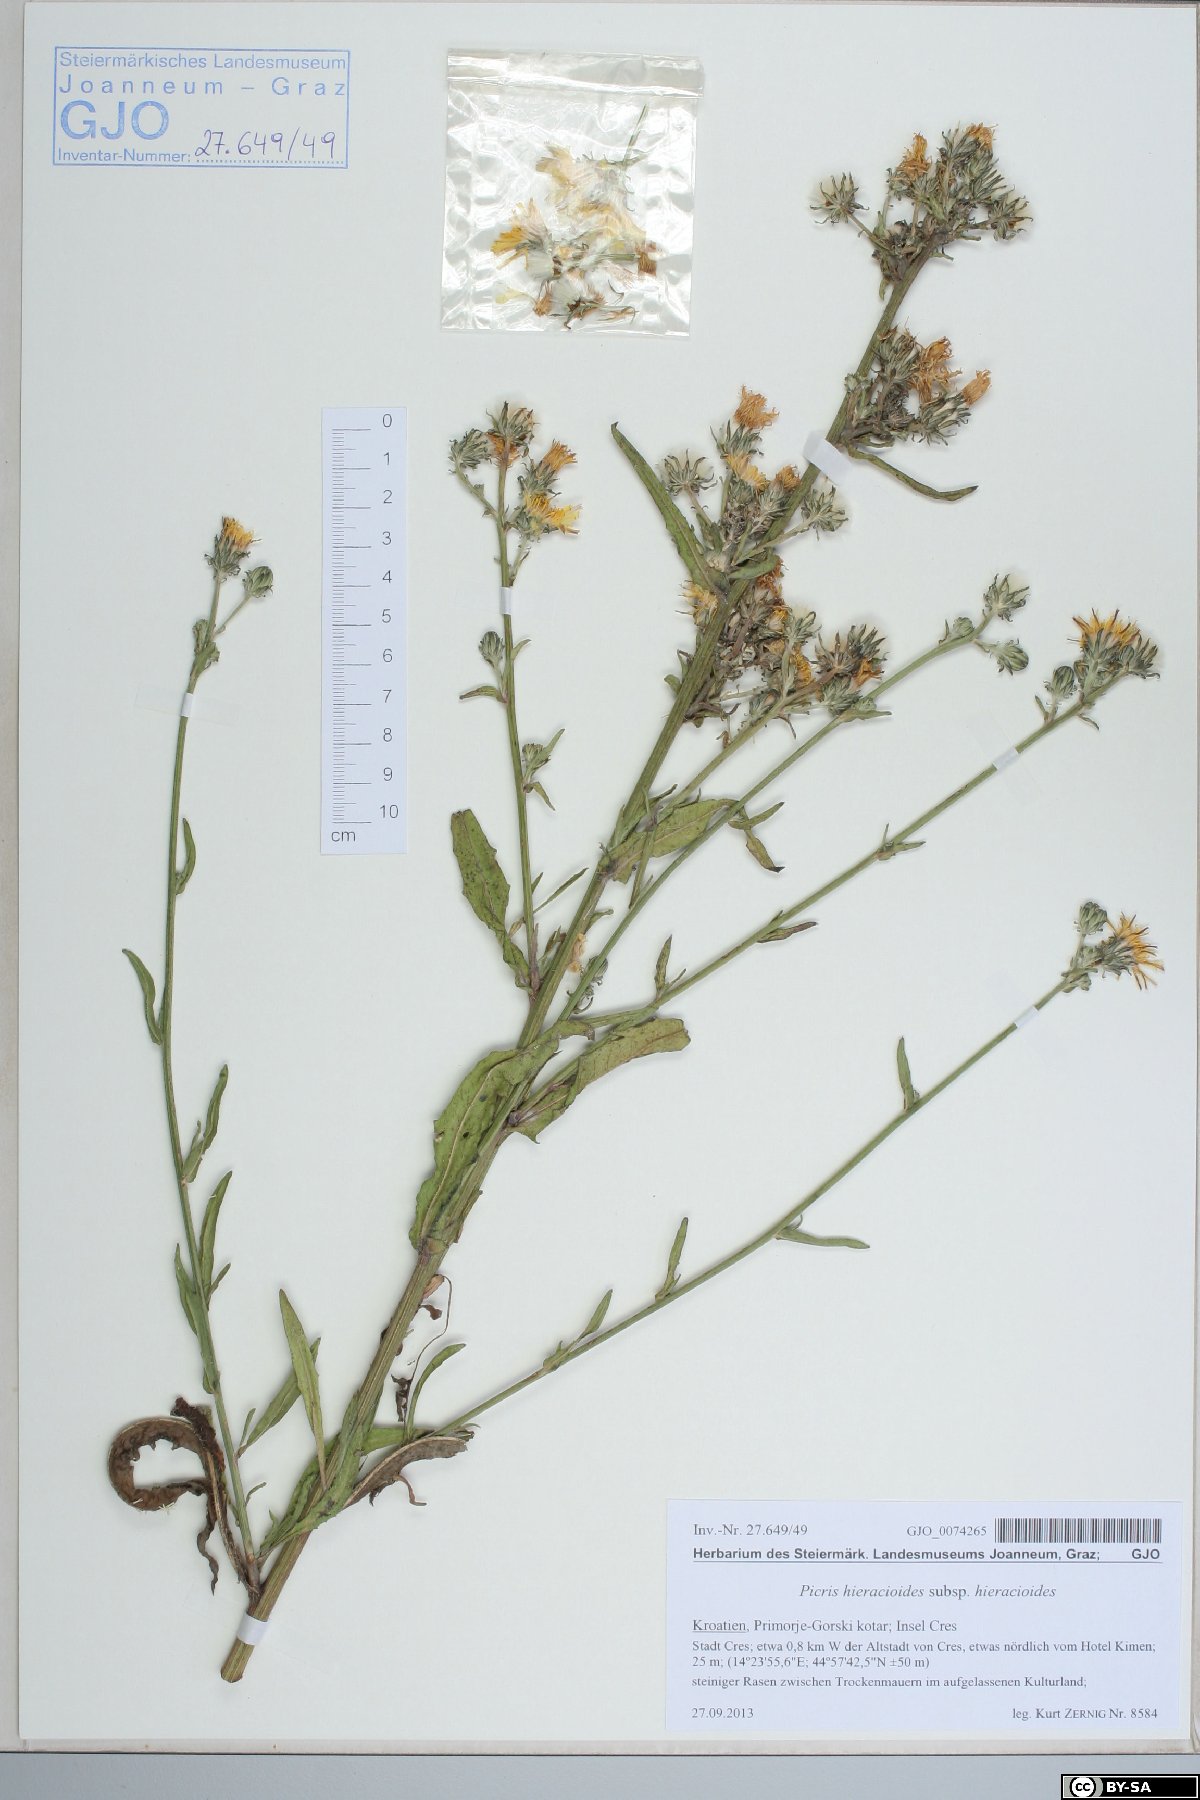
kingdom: Plantae
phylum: Tracheophyta
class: Magnoliopsida
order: Asterales
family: Asteraceae
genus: Picris
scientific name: Picris hieracioides
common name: Hawkweed oxtongue
